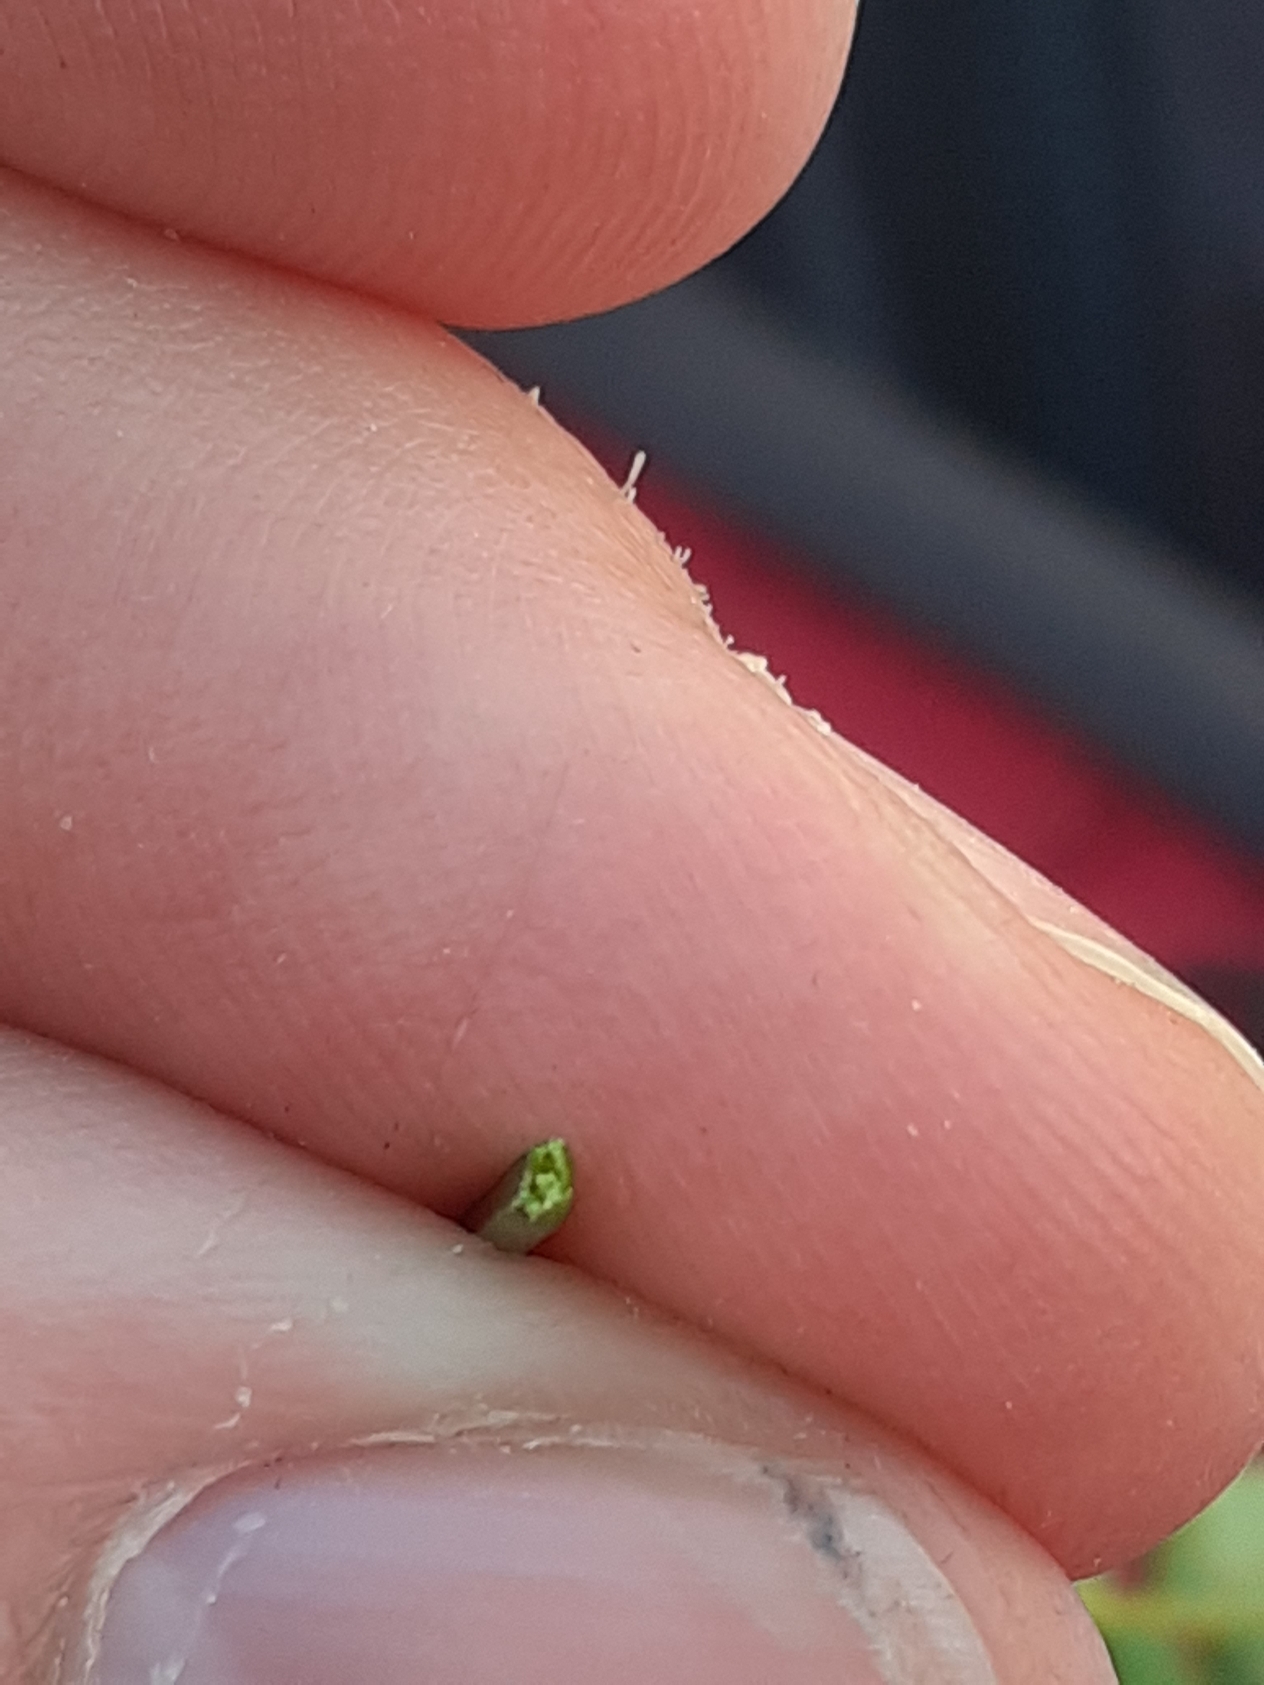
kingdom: Plantae
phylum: Tracheophyta
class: Magnoliopsida
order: Brassicales
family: Brassicaceae
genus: Cardamine
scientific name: Cardamine pratensis
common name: Engkarse
